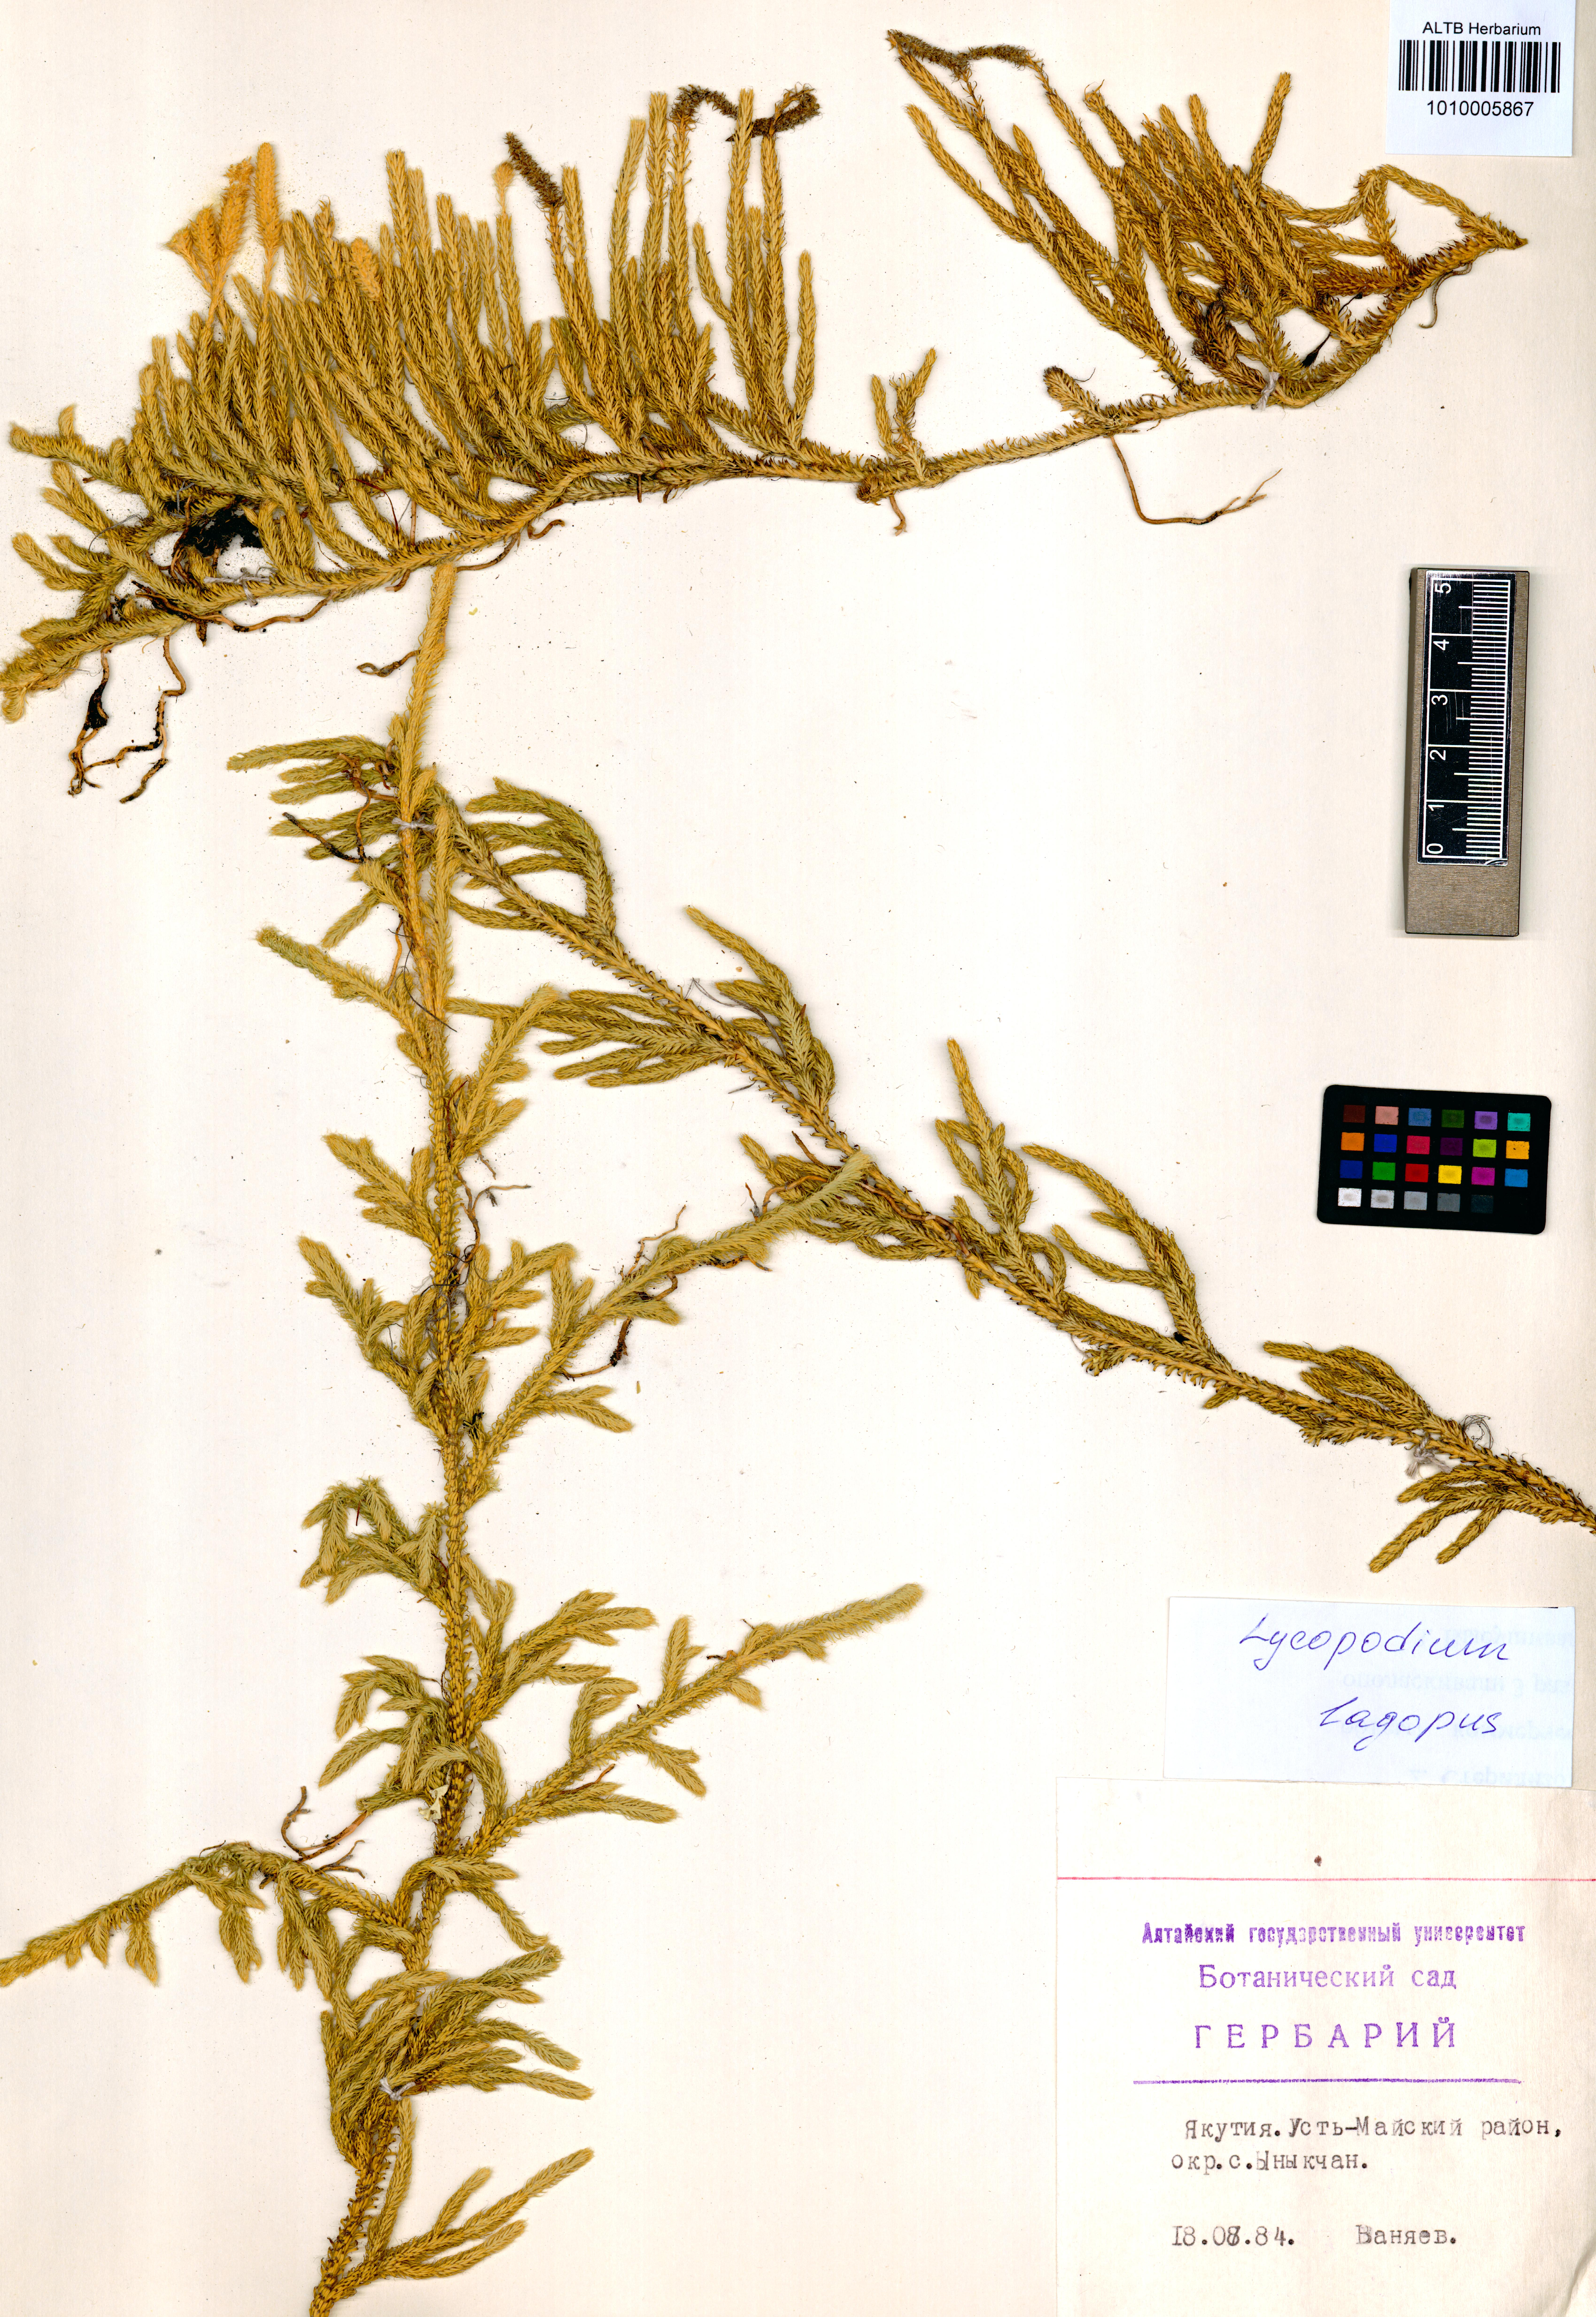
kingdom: Plantae
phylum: Tracheophyta
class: Lycopodiopsida
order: Lycopodiales
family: Lycopodiaceae
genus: Lycopodium
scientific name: Lycopodium lagopus
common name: One-cone clubmoss
